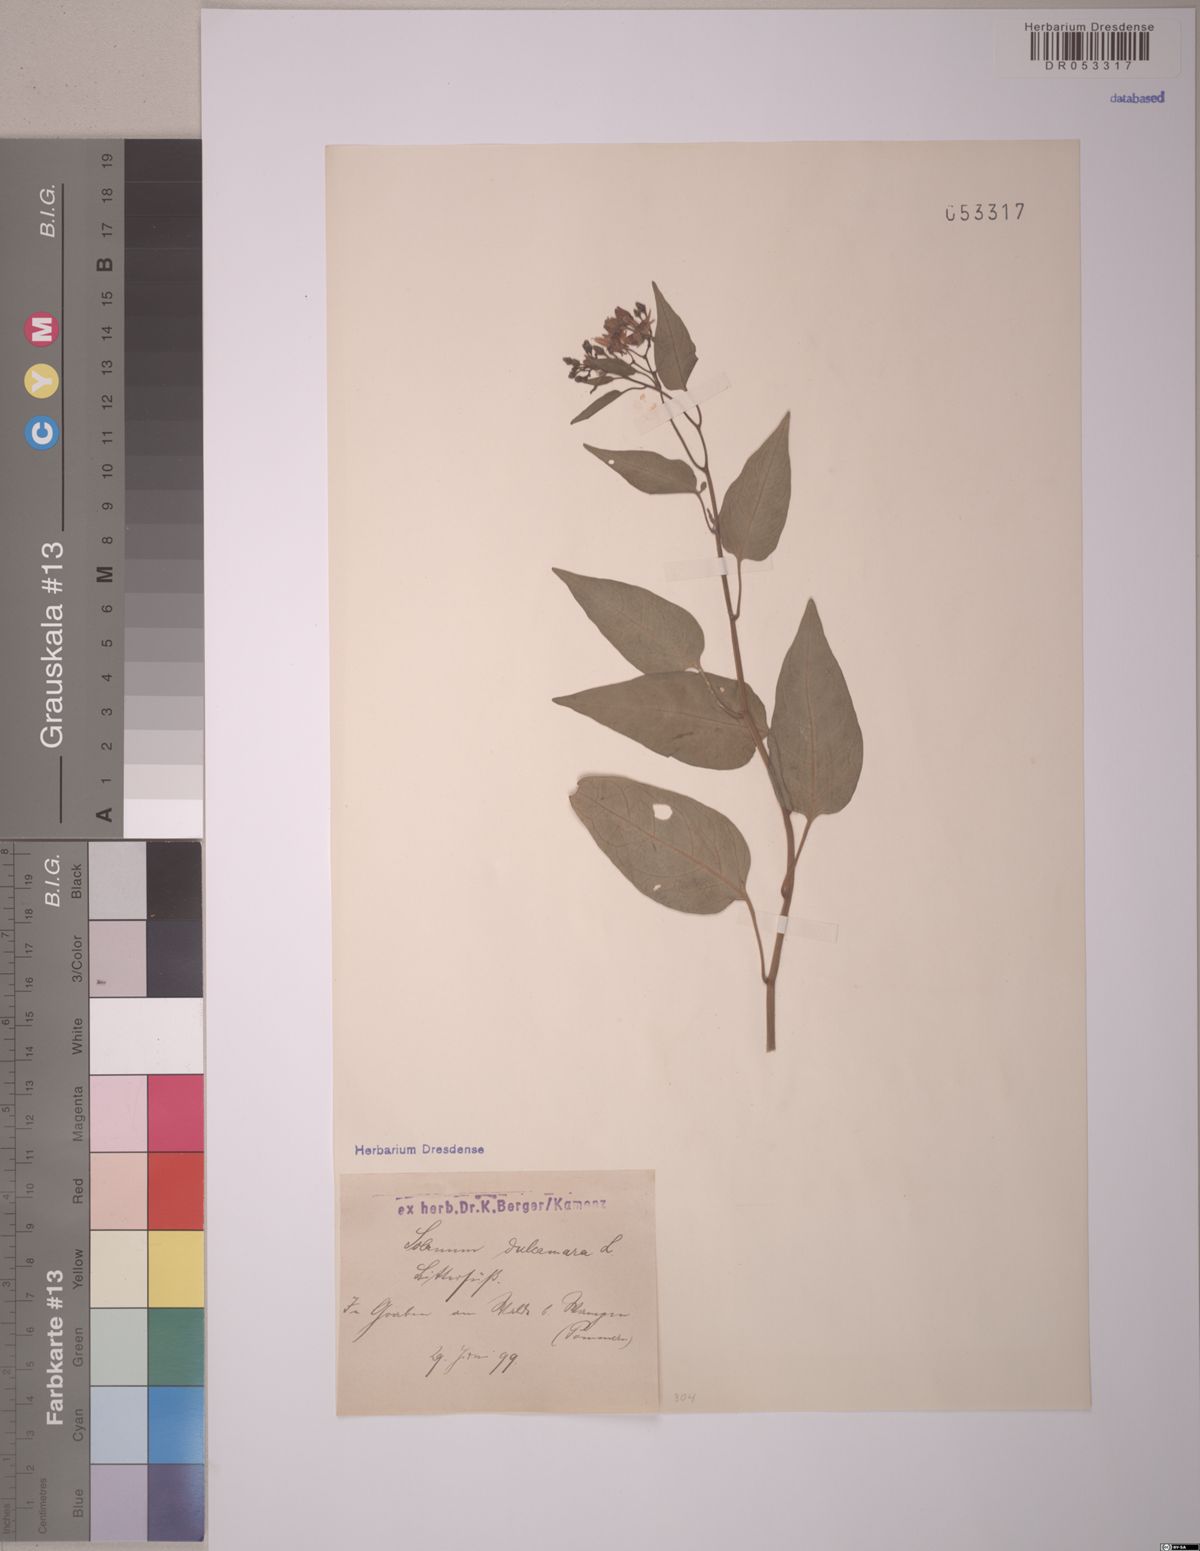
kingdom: Plantae
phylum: Tracheophyta
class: Magnoliopsida
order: Solanales
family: Solanaceae
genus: Solanum
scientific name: Solanum dulcamara
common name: Climbing nightshade
